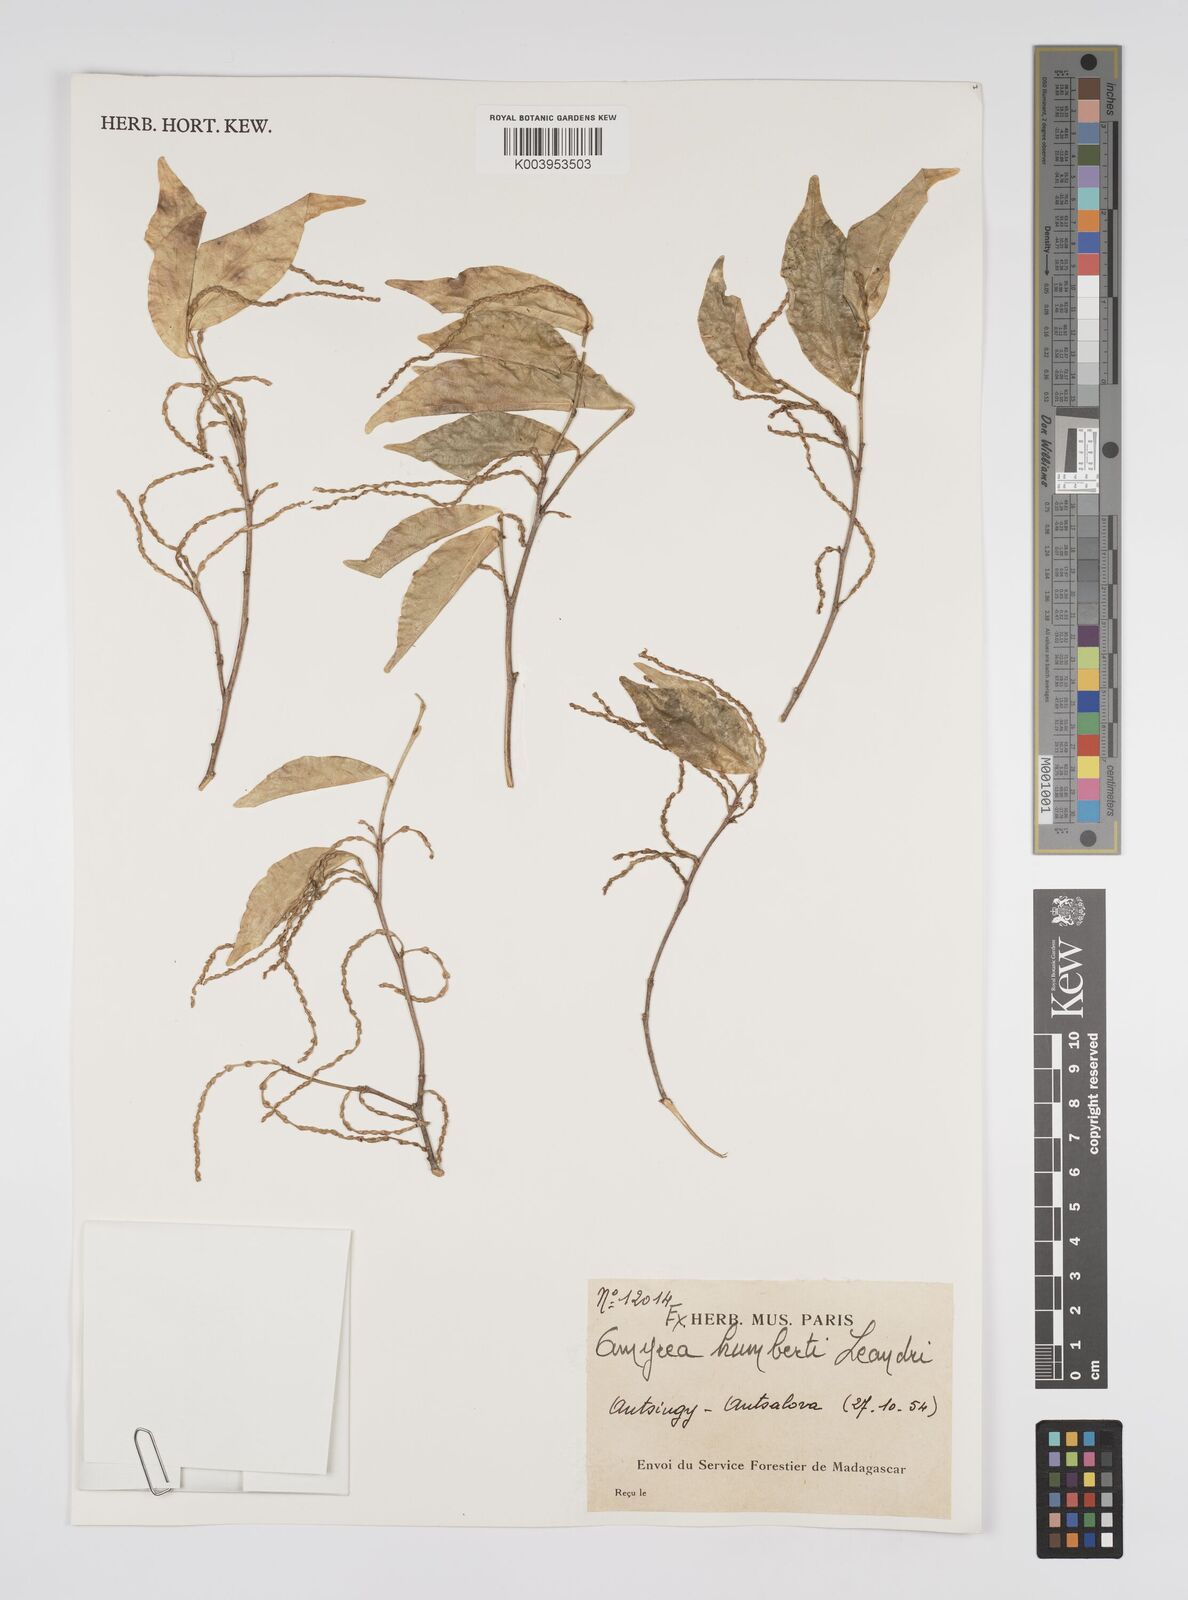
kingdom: Plantae
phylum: Tracheophyta
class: Magnoliopsida
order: Malpighiales
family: Euphorbiaceae
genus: Amyrea
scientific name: Amyrea humbertii
